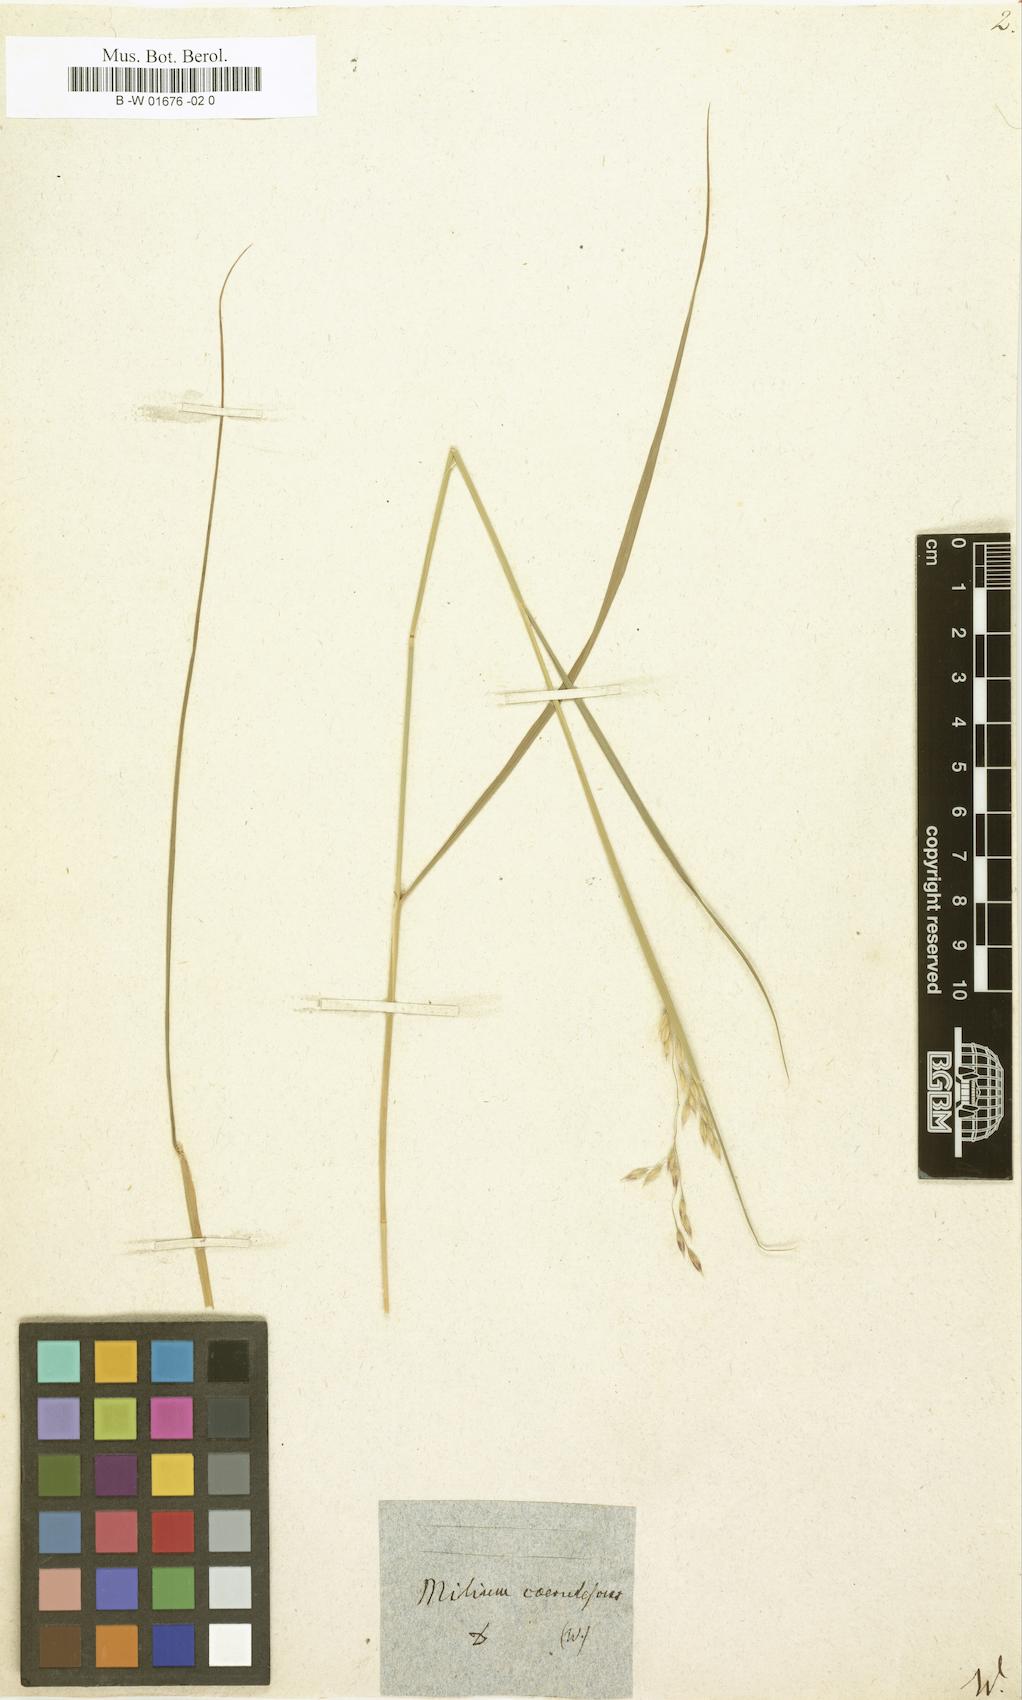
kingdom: Plantae
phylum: Tracheophyta
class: Liliopsida
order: Poales
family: Poaceae
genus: Piptatherum
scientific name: Piptatherum coerulescens
